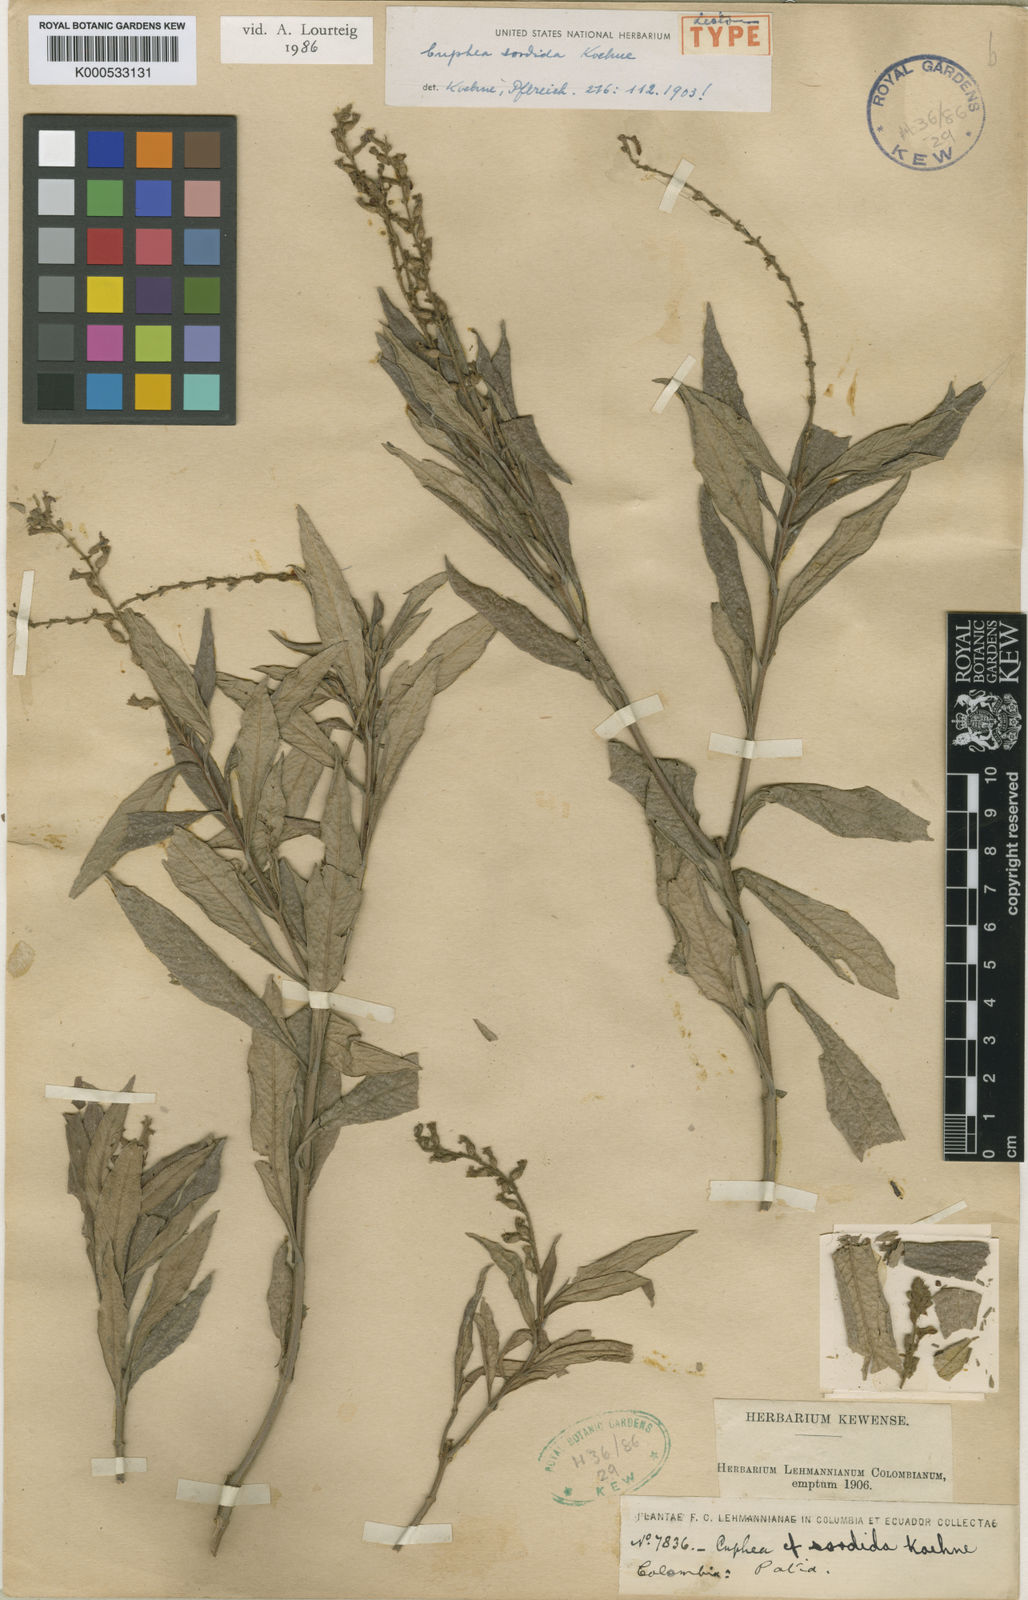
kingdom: Plantae
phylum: Tracheophyta
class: Magnoliopsida
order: Myrtales
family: Lythraceae
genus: Cuphea
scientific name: Cuphea sordida
